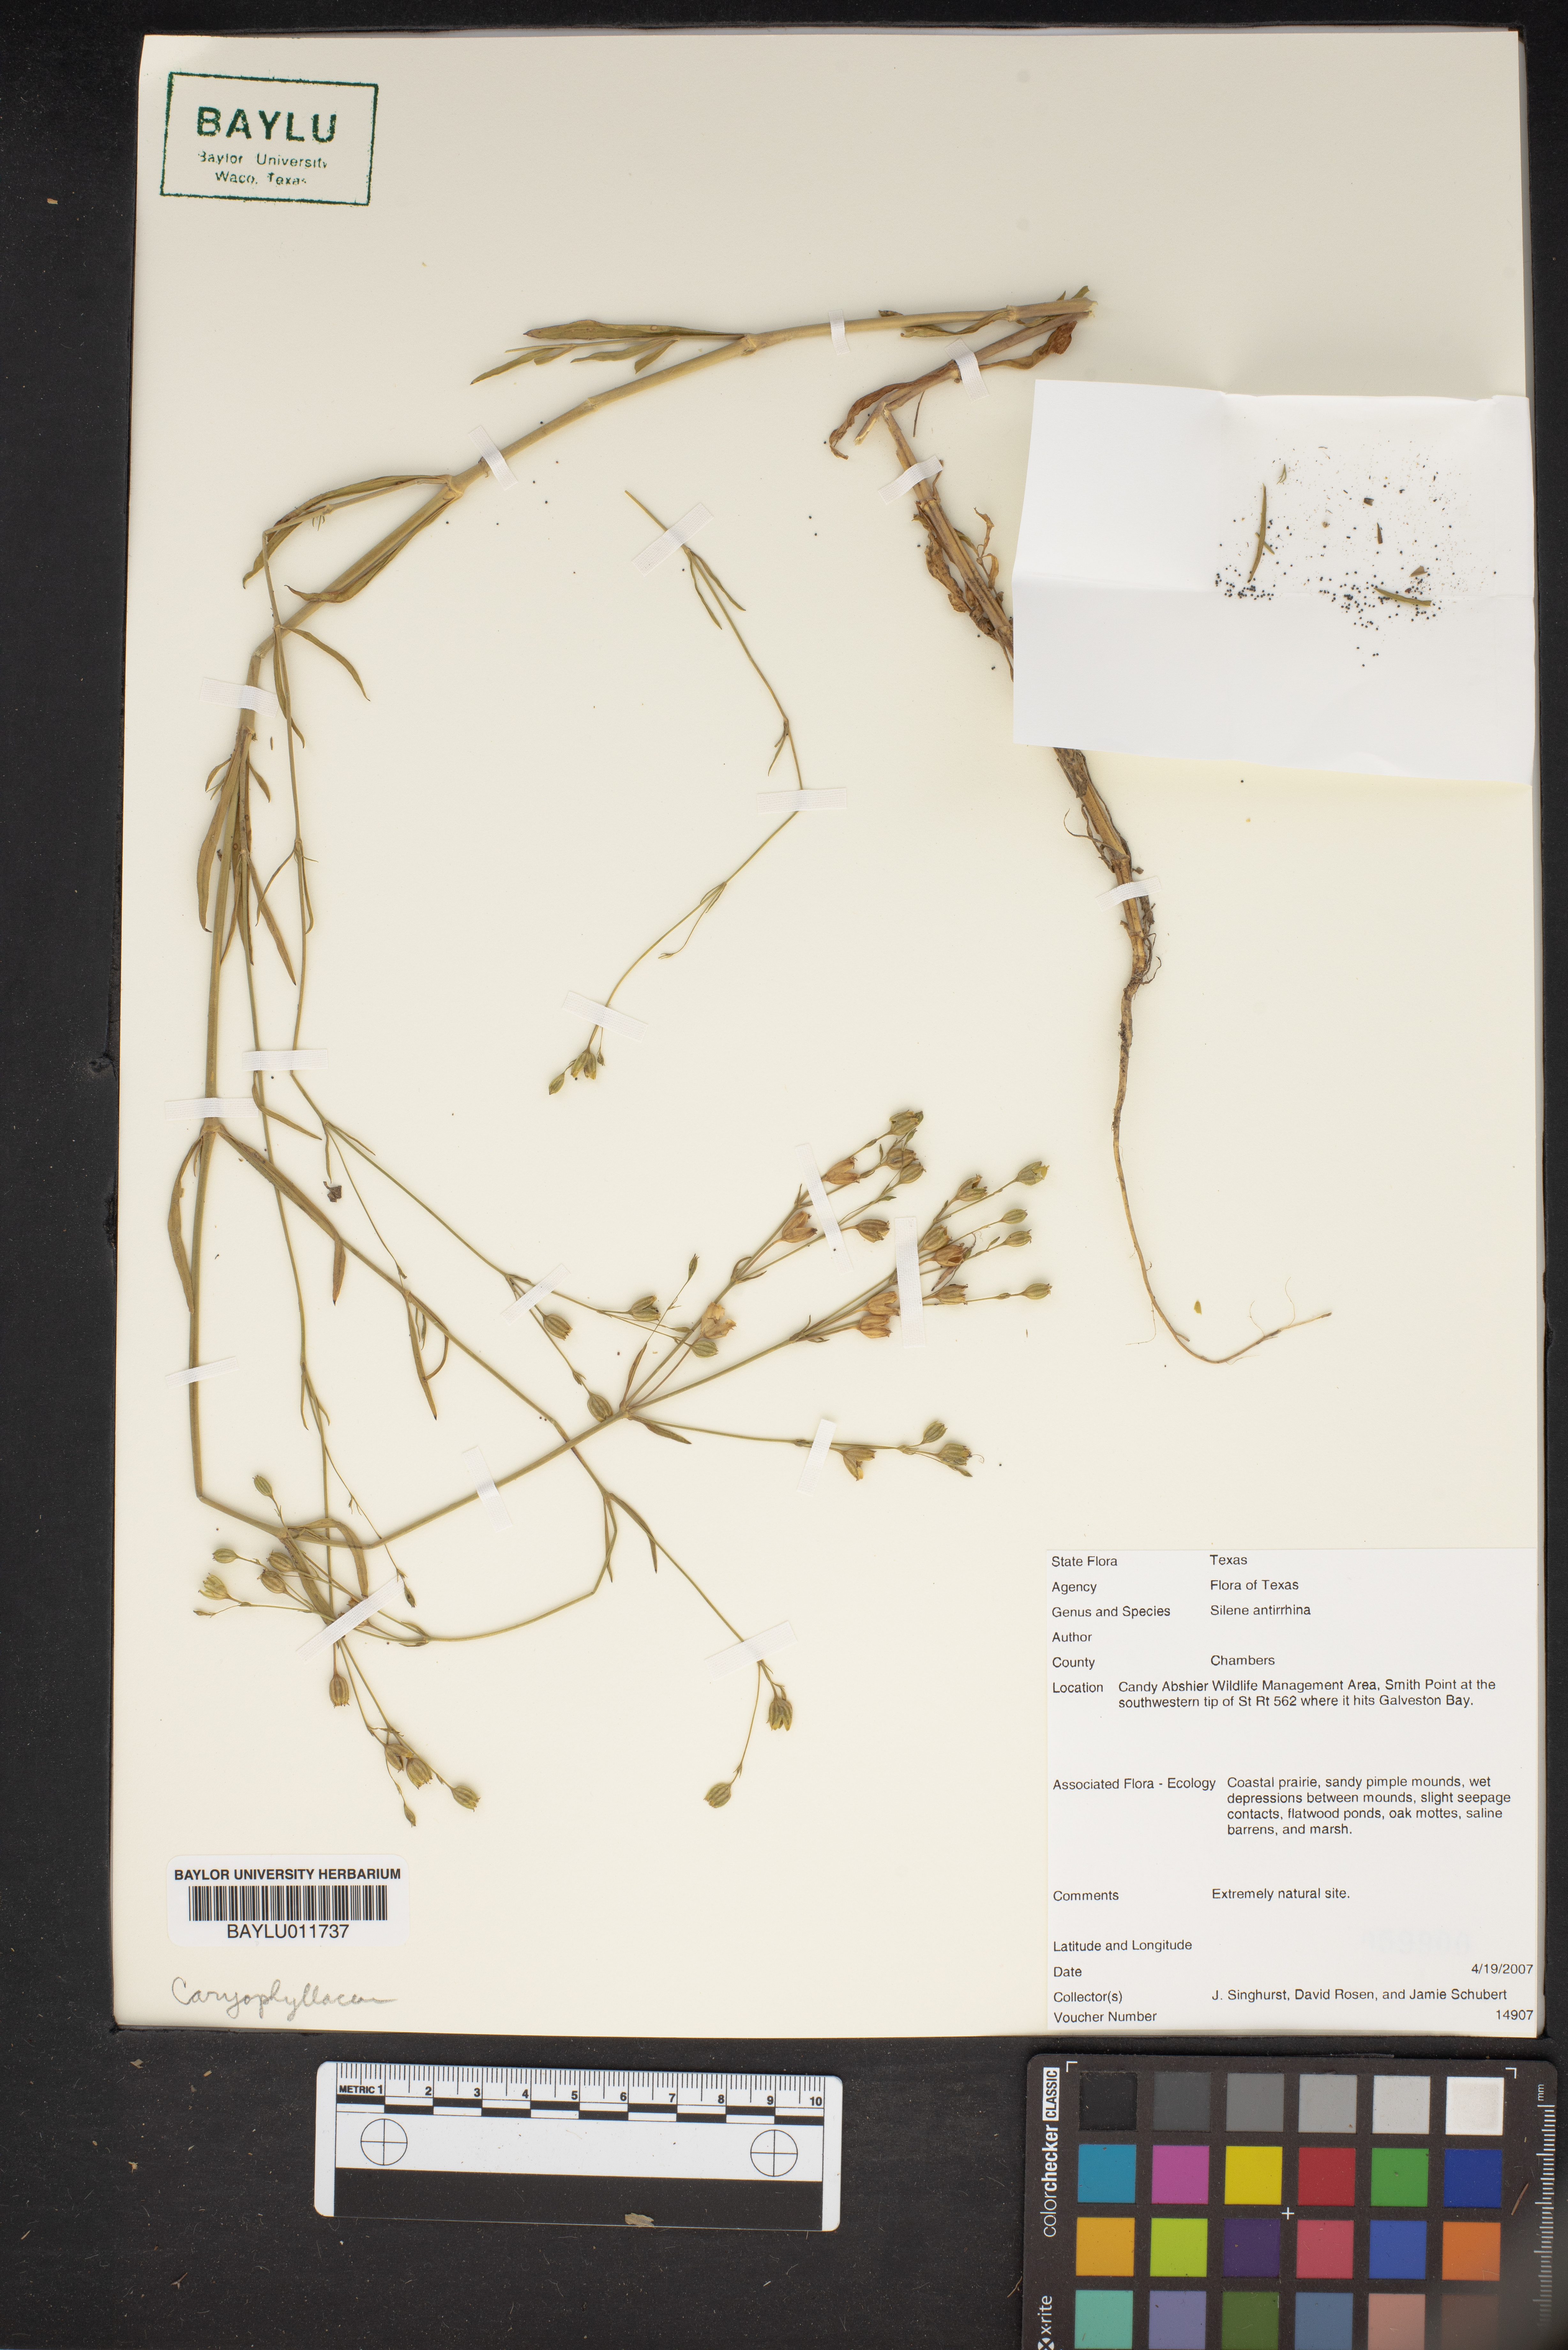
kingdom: Plantae
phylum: Tracheophyta
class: Magnoliopsida
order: Caryophyllales
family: Caryophyllaceae
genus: Silene
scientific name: Silene antirrhina
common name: Sleepy catchfly
